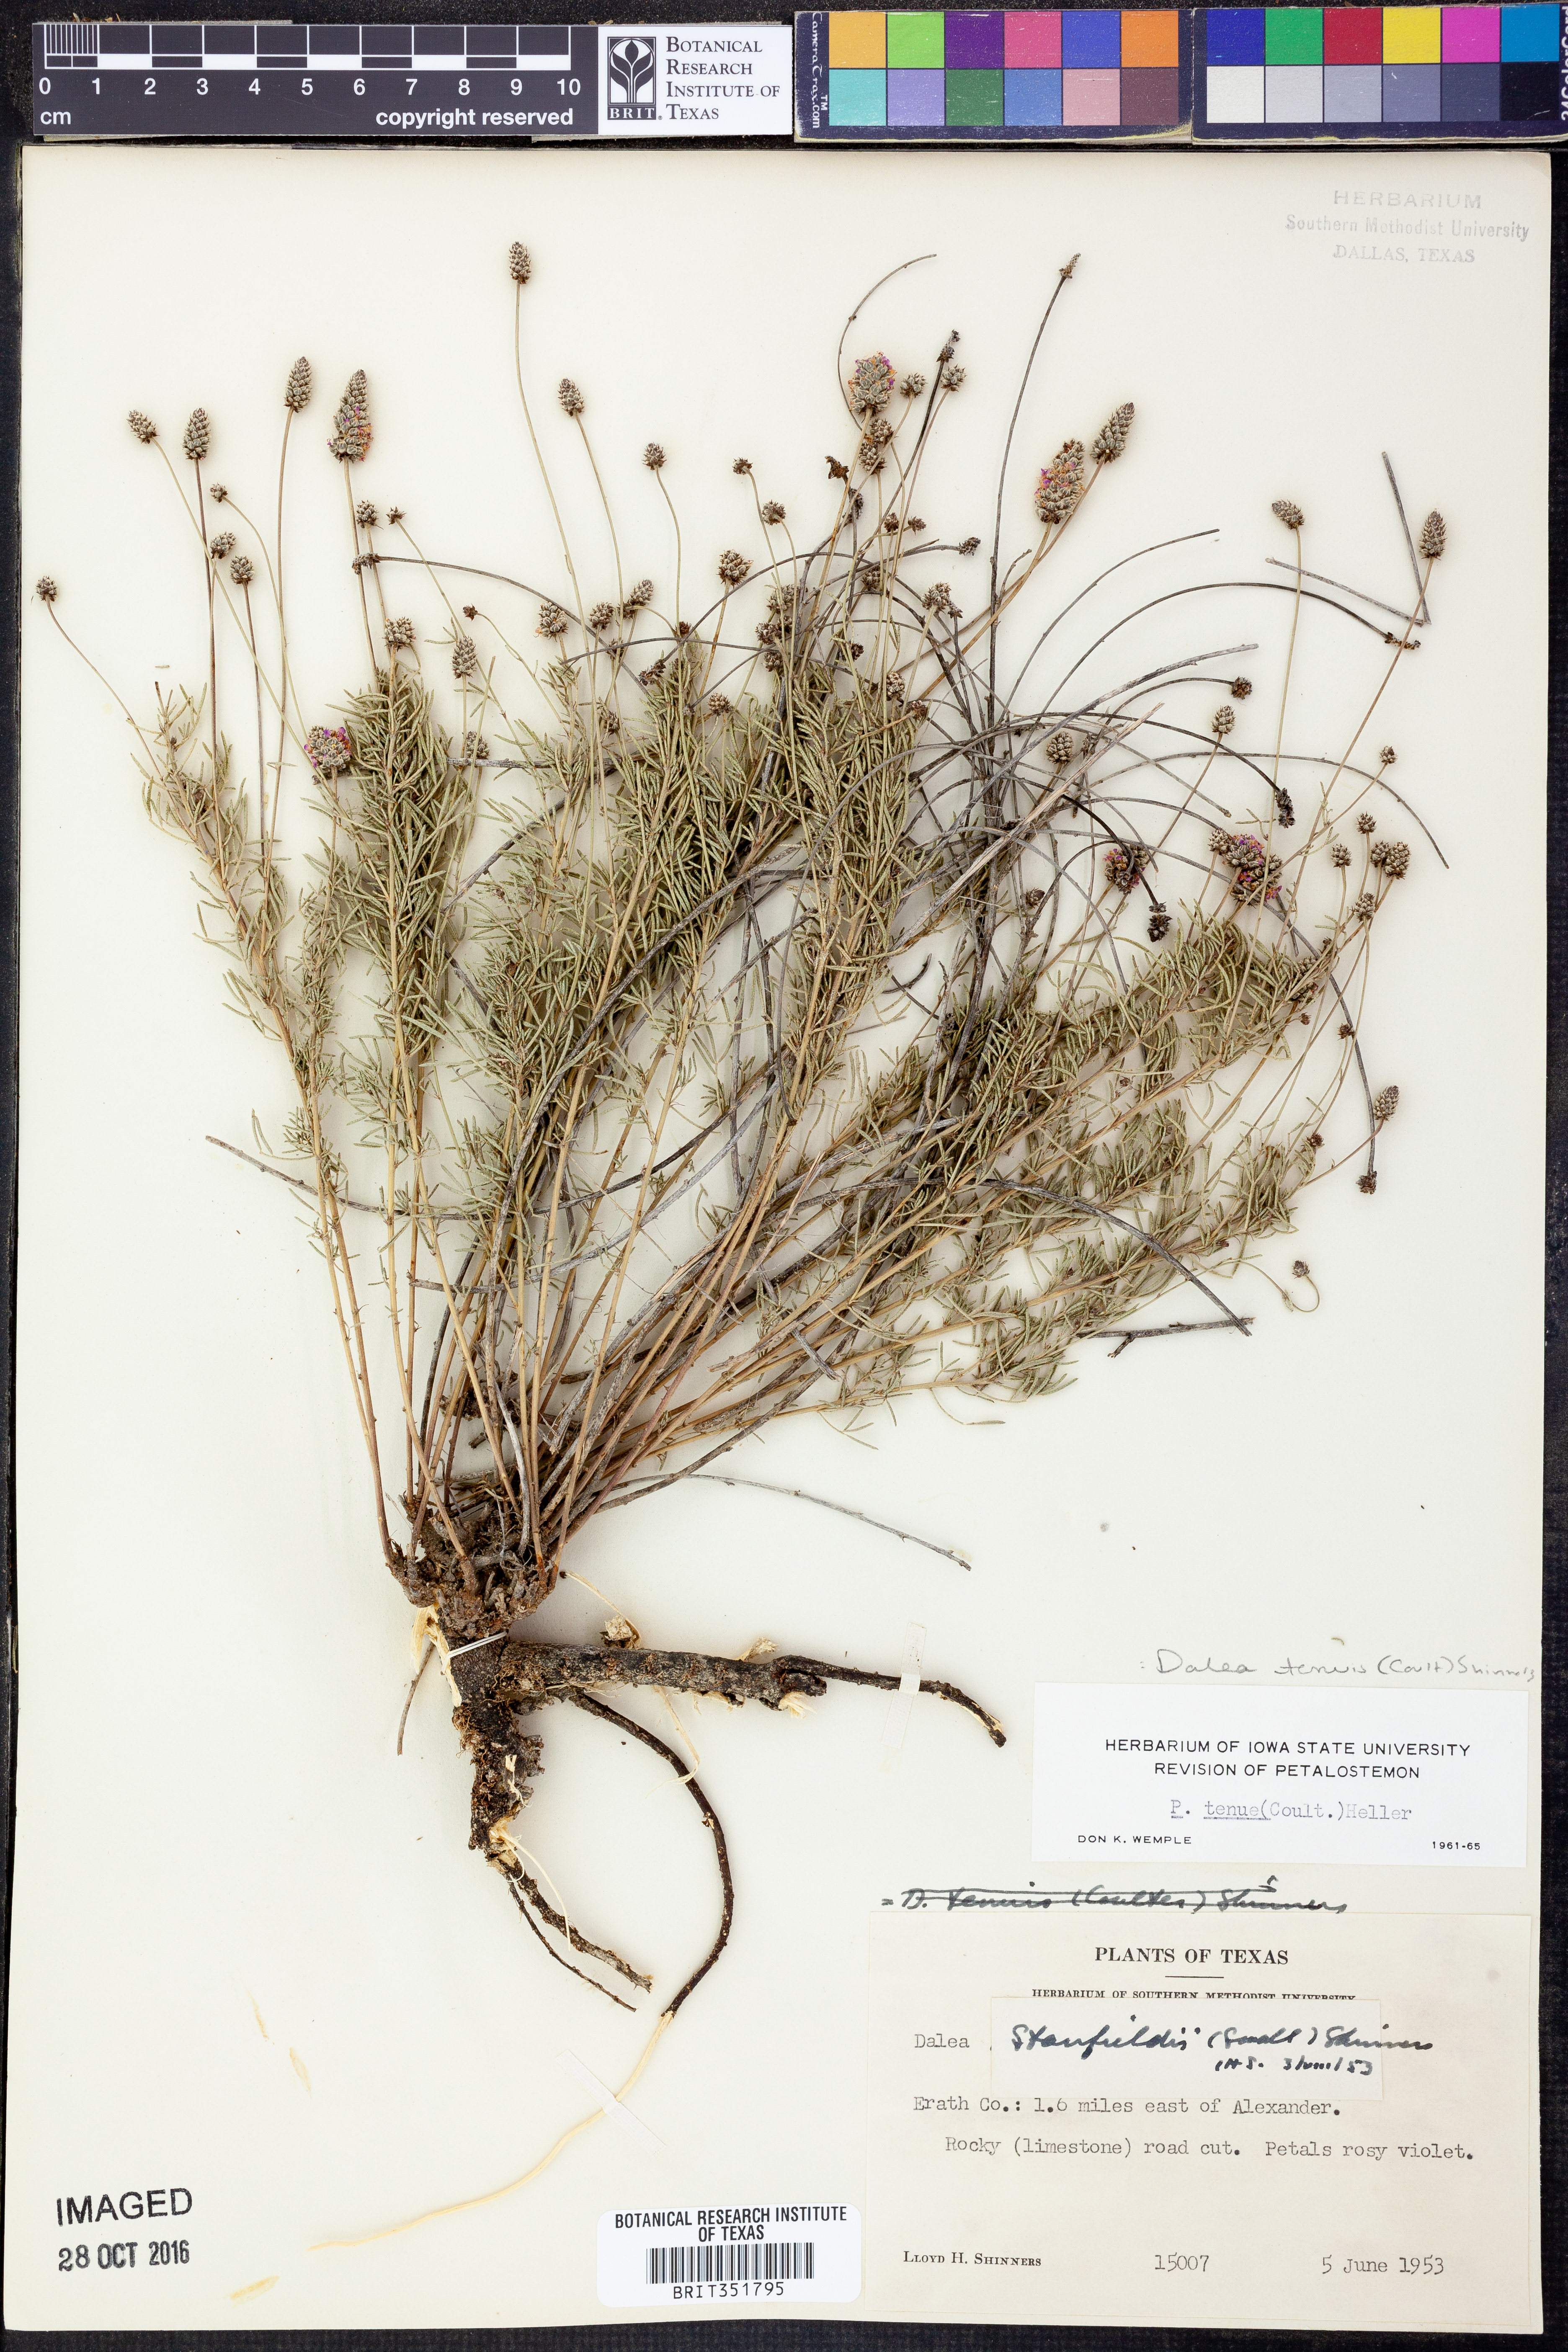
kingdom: Plantae
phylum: Tracheophyta
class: Magnoliopsida
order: Fabales
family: Fabaceae
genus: Dalea
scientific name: Dalea tenuis
